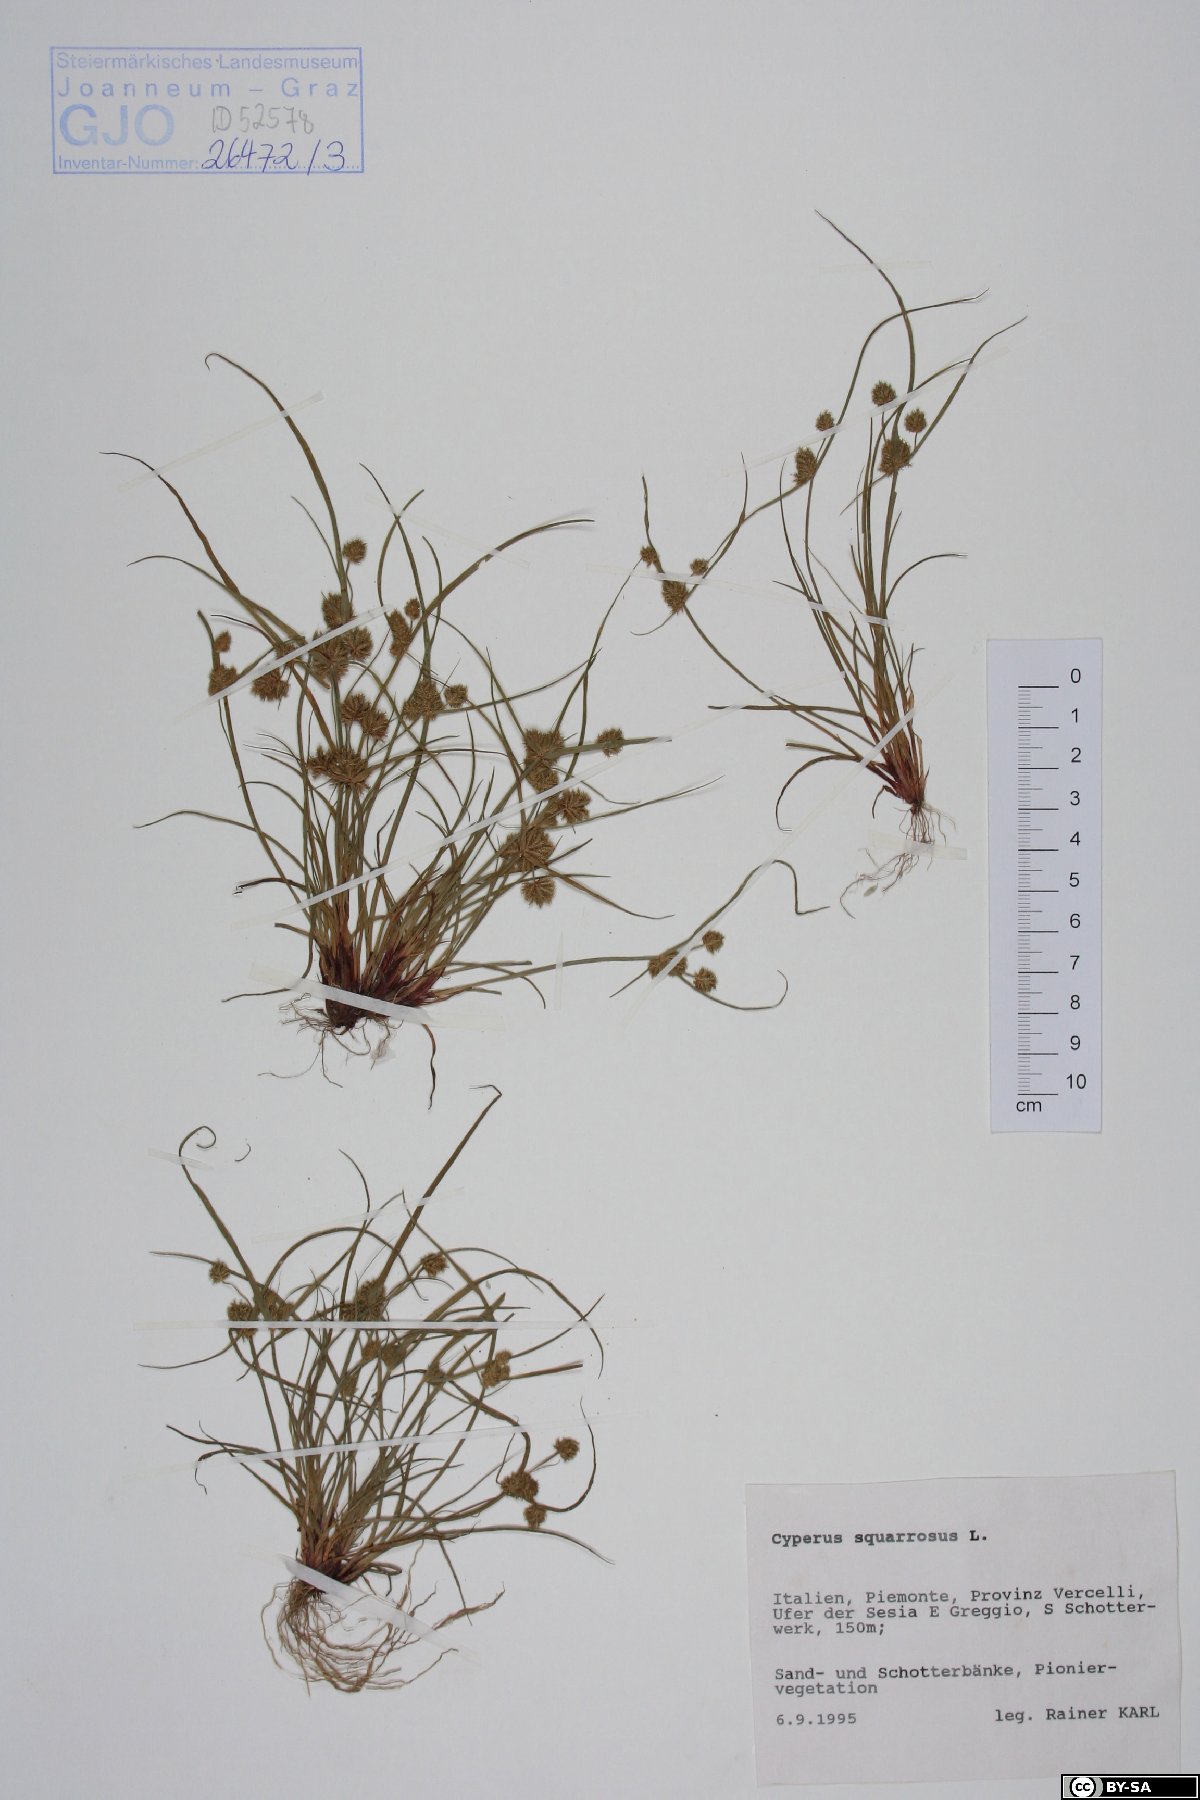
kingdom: Plantae
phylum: Tracheophyta
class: Liliopsida
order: Poales
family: Cyperaceae
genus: Cyperus
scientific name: Cyperus squarrosus
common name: Awned cyperus
